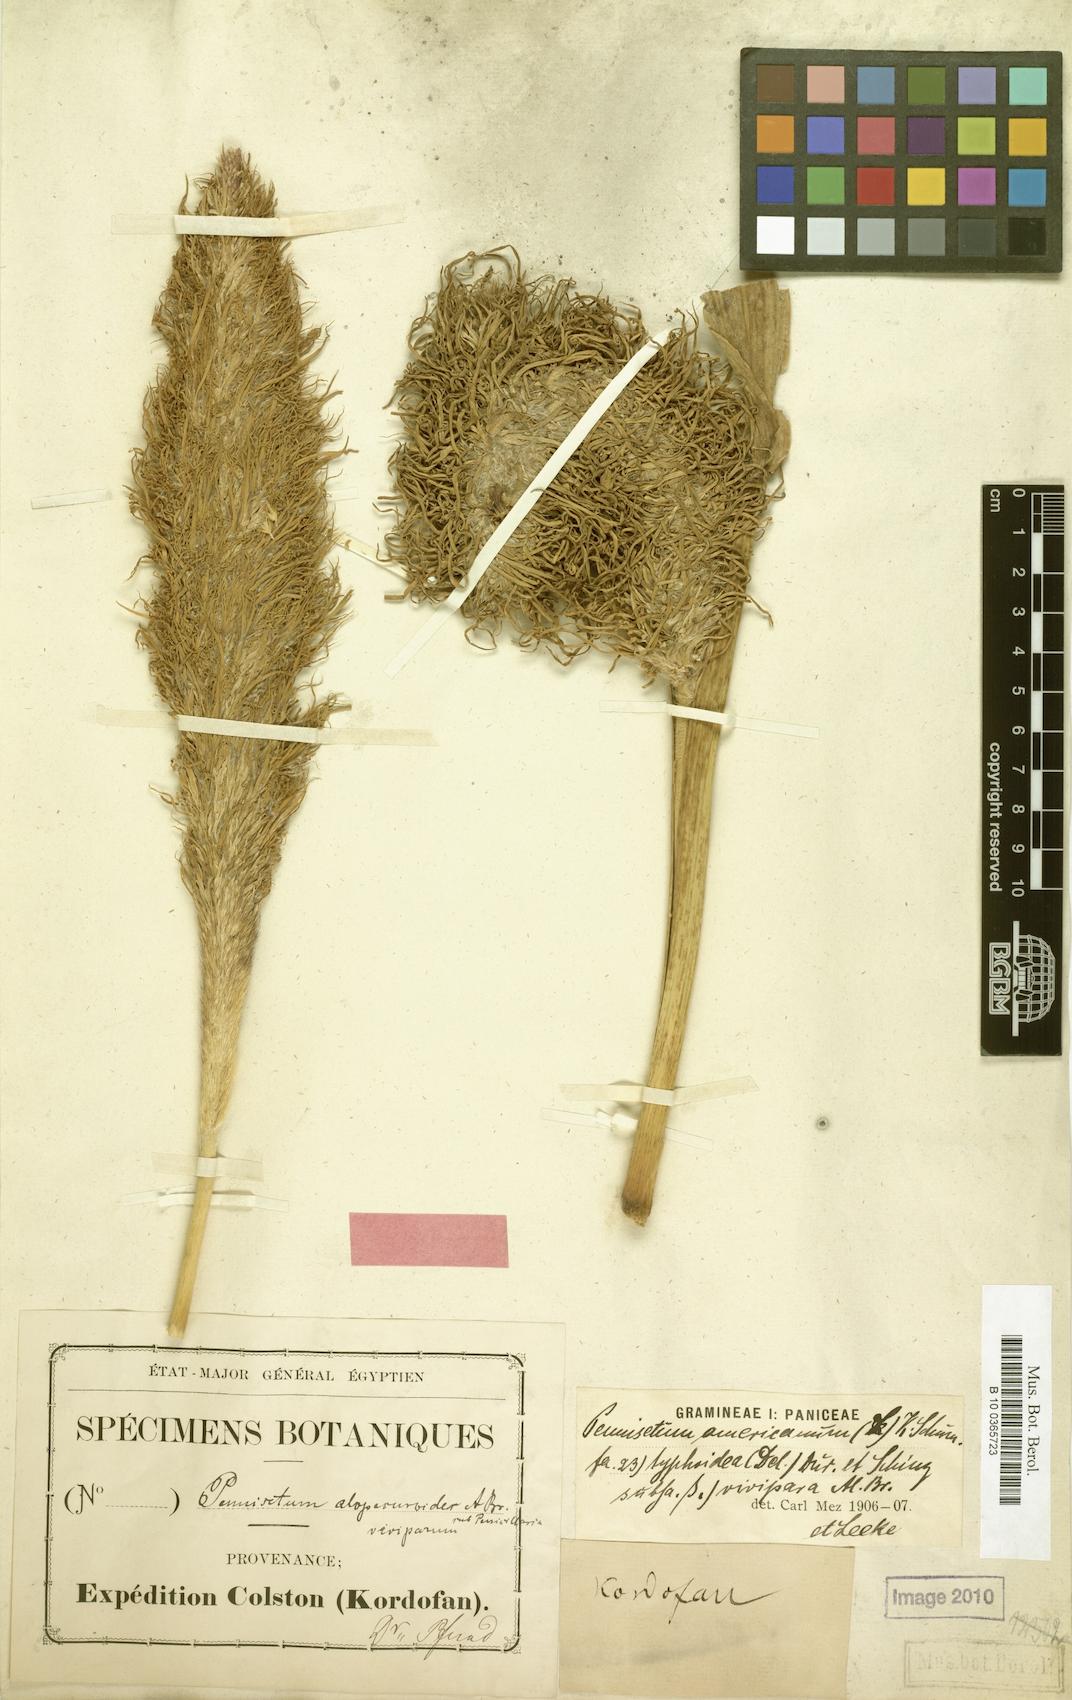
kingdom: Plantae
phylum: Tracheophyta
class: Liliopsida
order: Poales
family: Poaceae
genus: Cenchrus
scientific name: Cenchrus americanus
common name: Pearl millet
